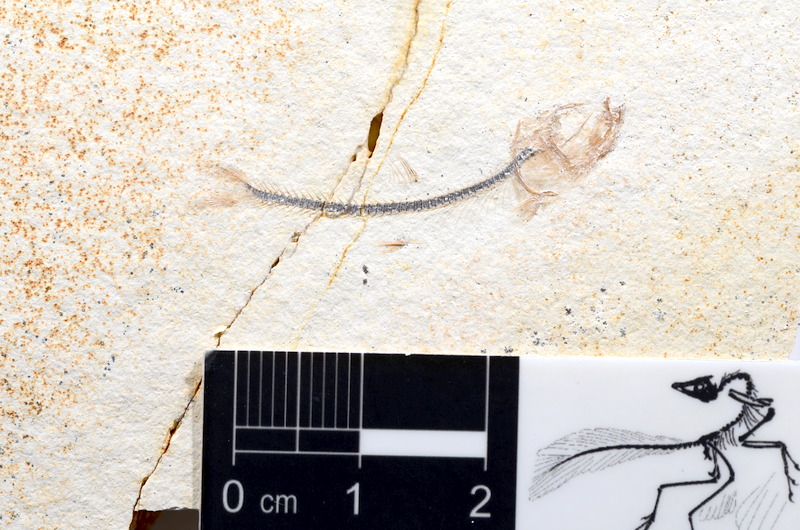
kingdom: Animalia
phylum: Chordata
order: Salmoniformes
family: Orthogonikleithridae
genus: Orthogonikleithrus
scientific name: Orthogonikleithrus hoelli
